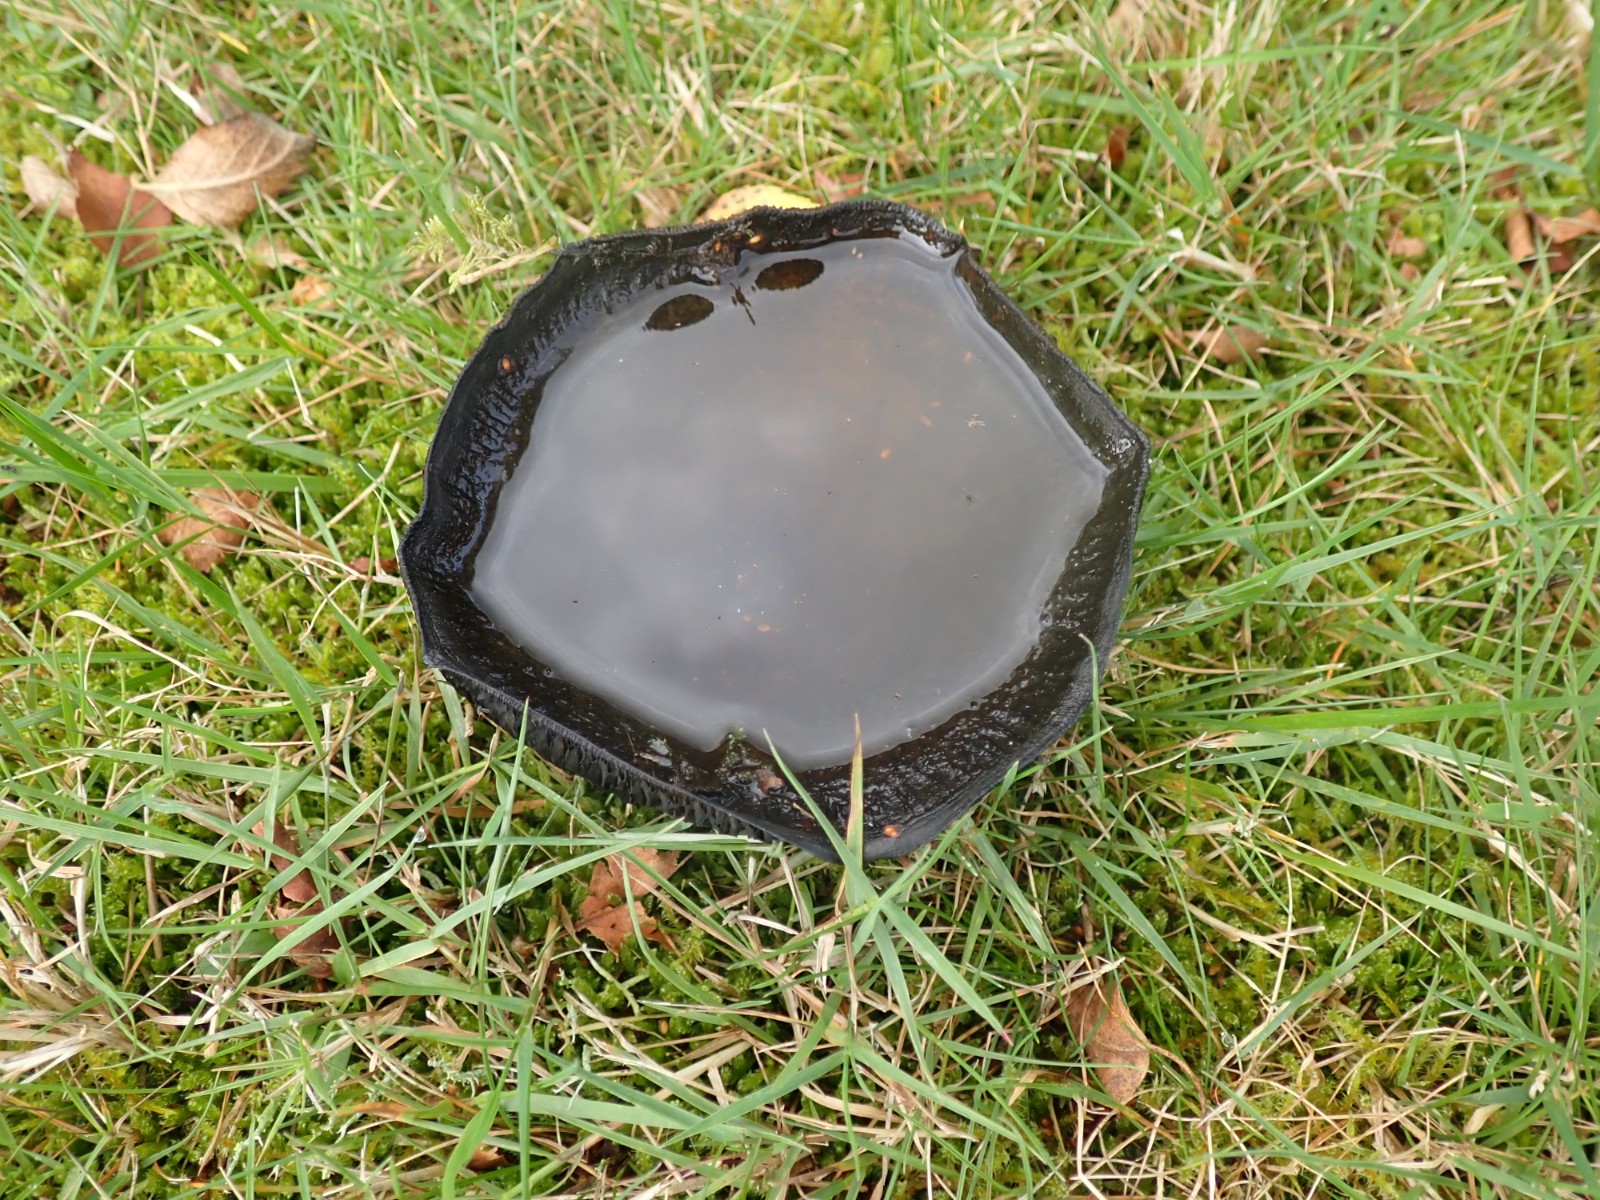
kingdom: Fungi
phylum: Basidiomycota
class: Agaricomycetes
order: Russulales
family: Russulaceae
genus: Lactarius
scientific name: Lactarius necator
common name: manddraber-mælkehat
